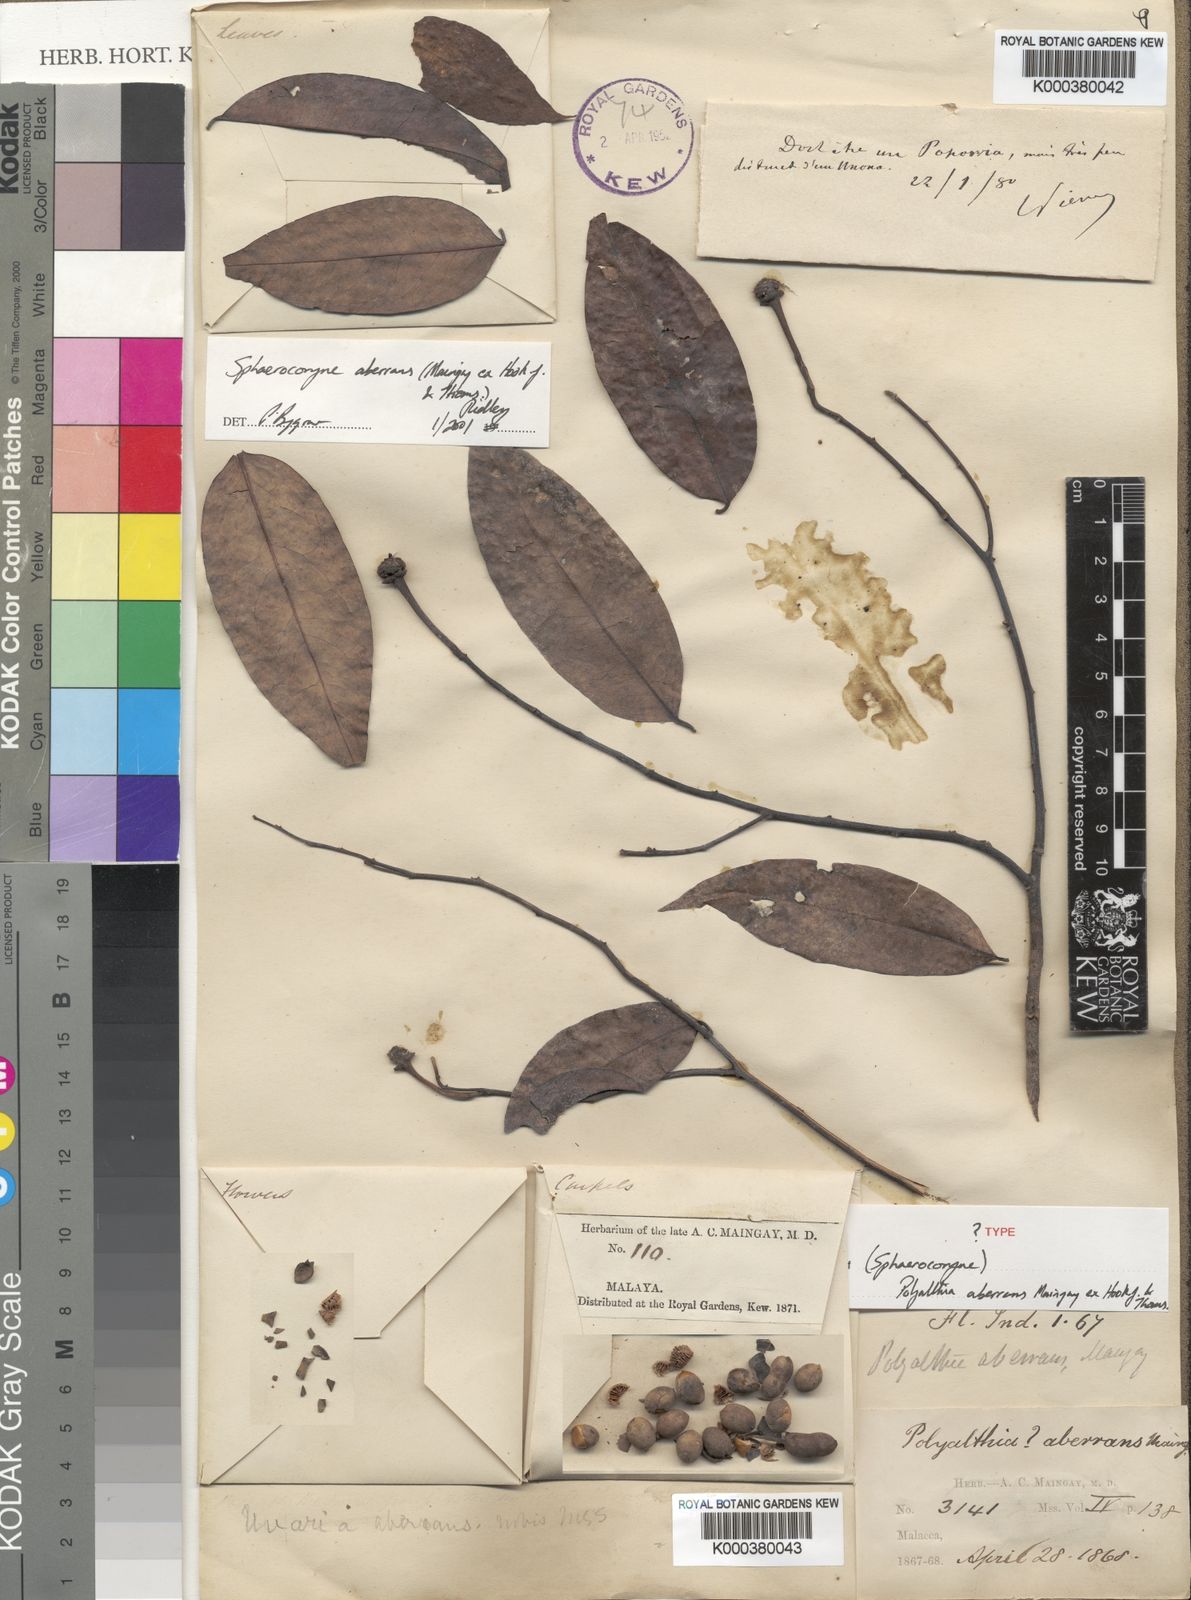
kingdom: Plantae
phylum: Tracheophyta
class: Magnoliopsida
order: Magnoliales
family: Annonaceae
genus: Sphaerocoryne
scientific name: Sphaerocoryne affinis
